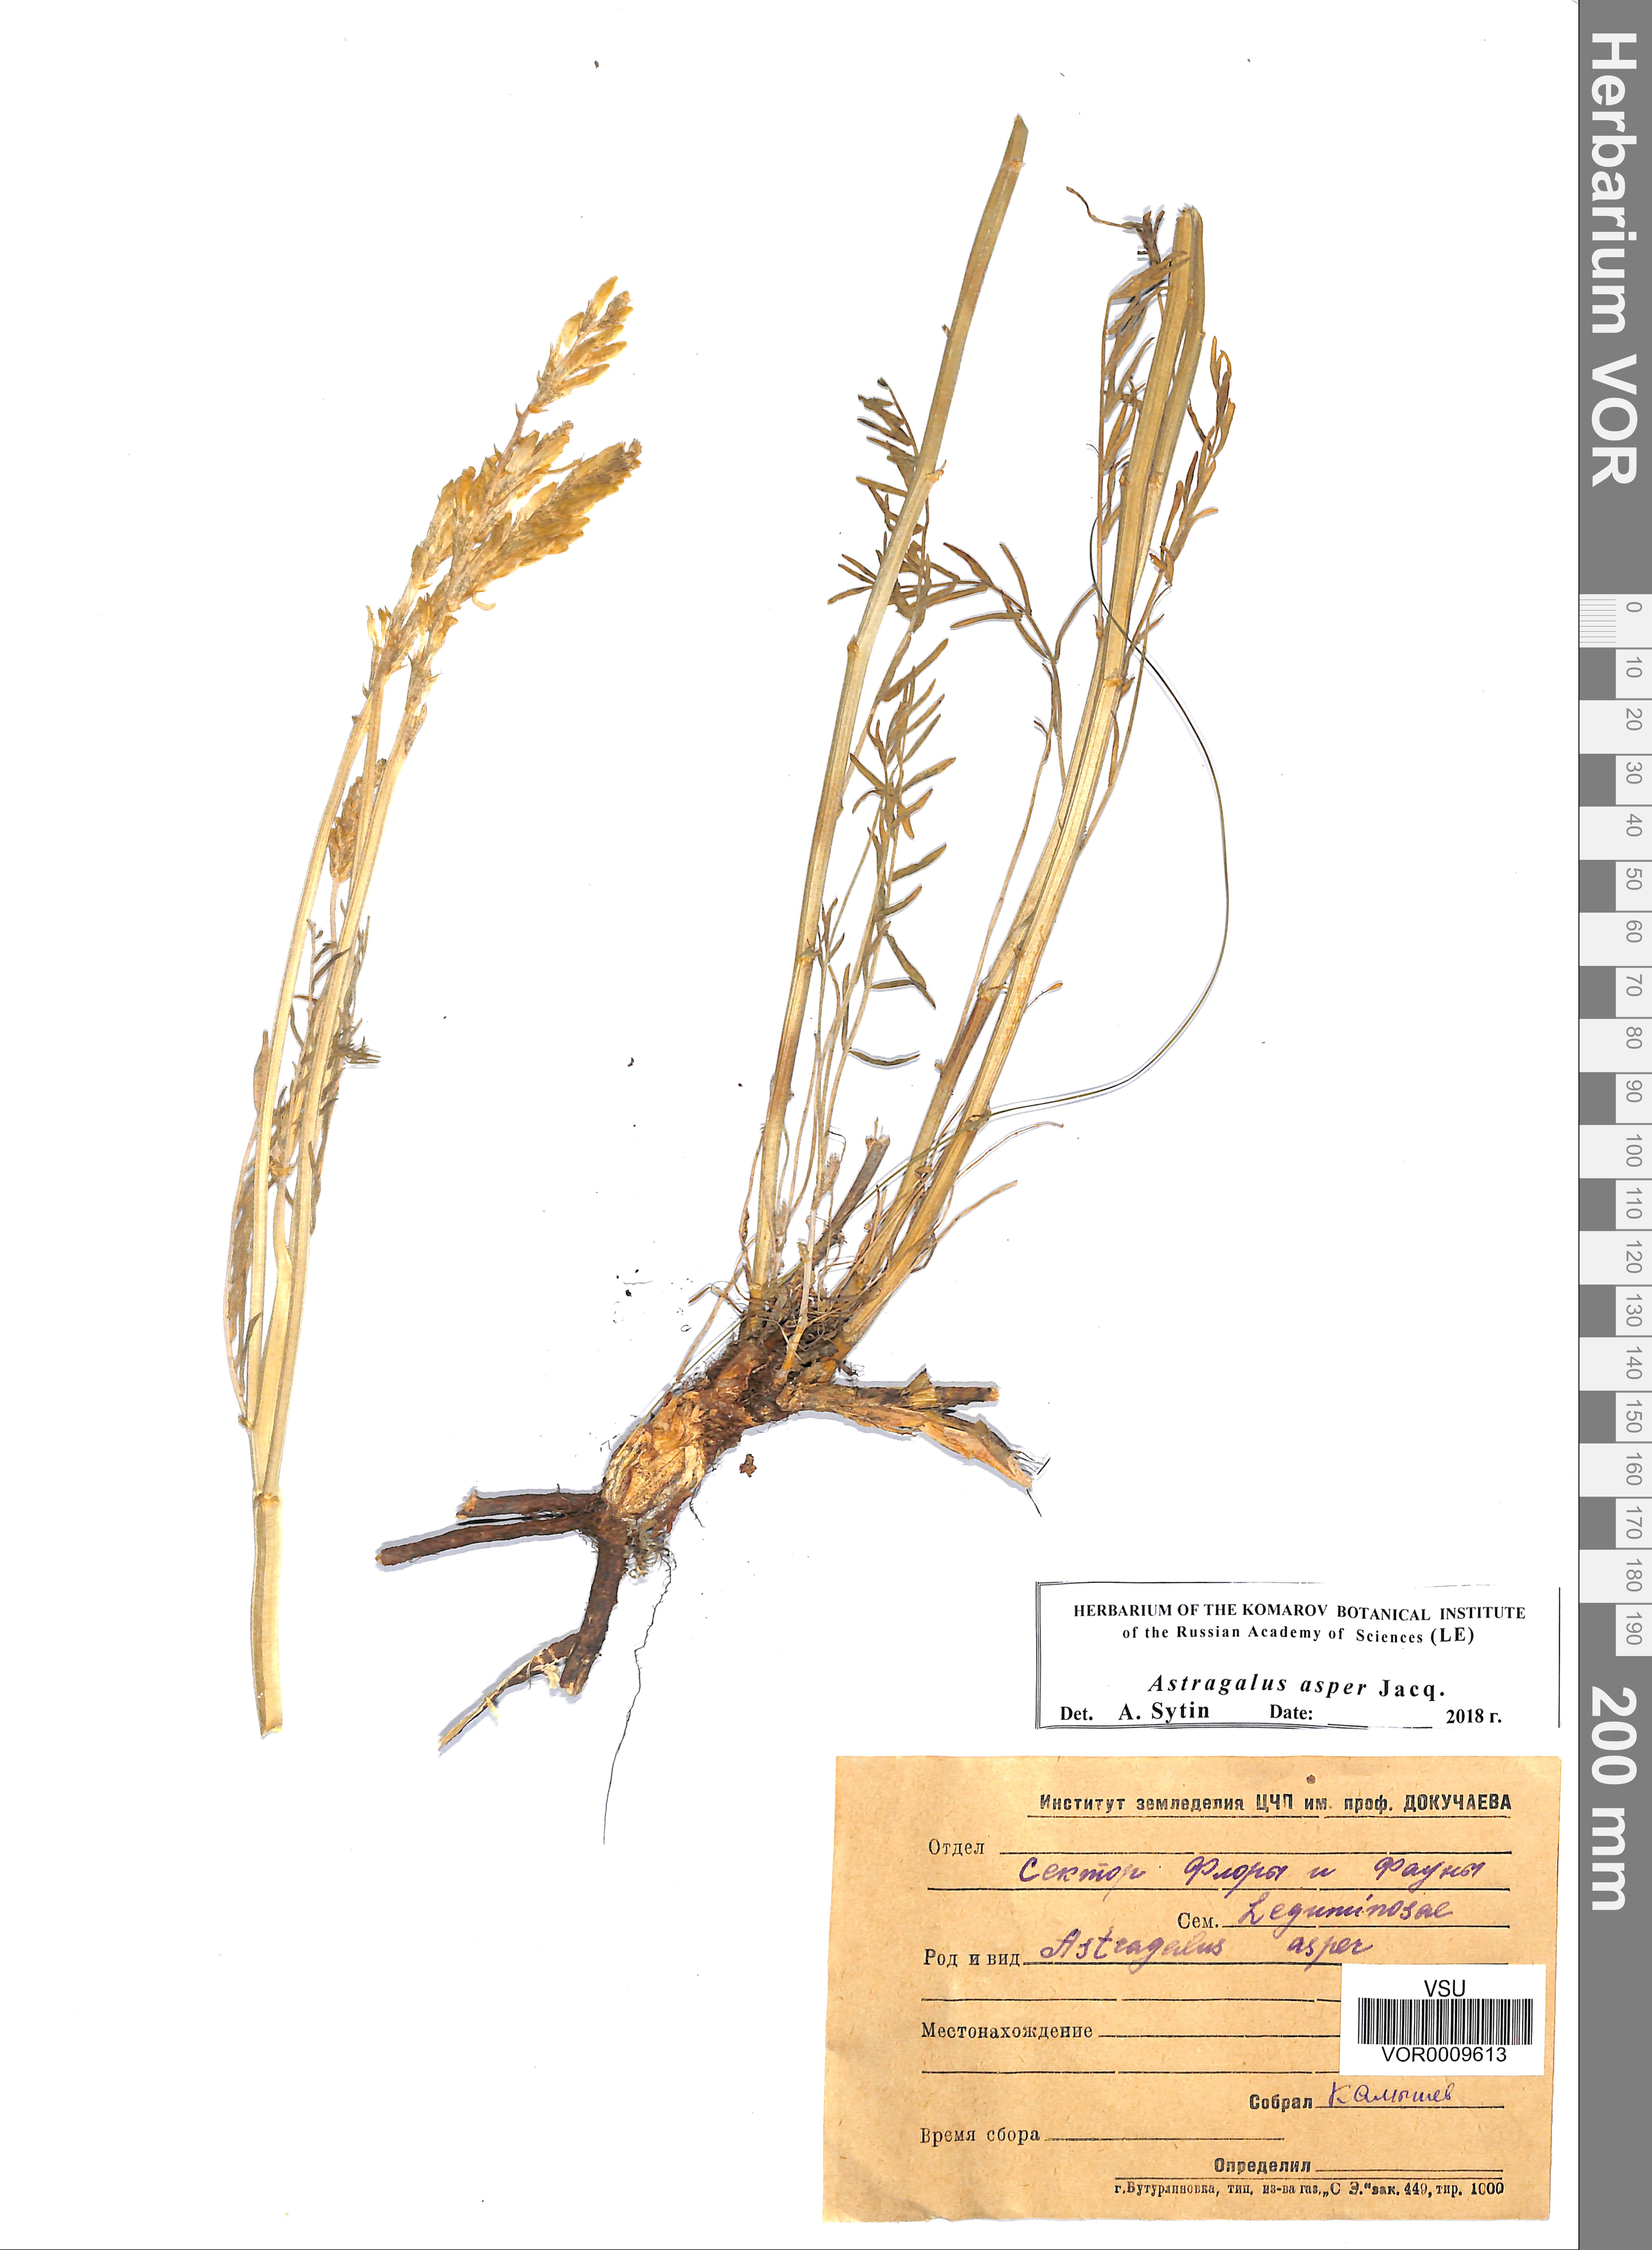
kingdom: Plantae
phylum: Tracheophyta
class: Magnoliopsida
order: Fabales
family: Fabaceae
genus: Astragalus
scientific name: Astragalus asper
